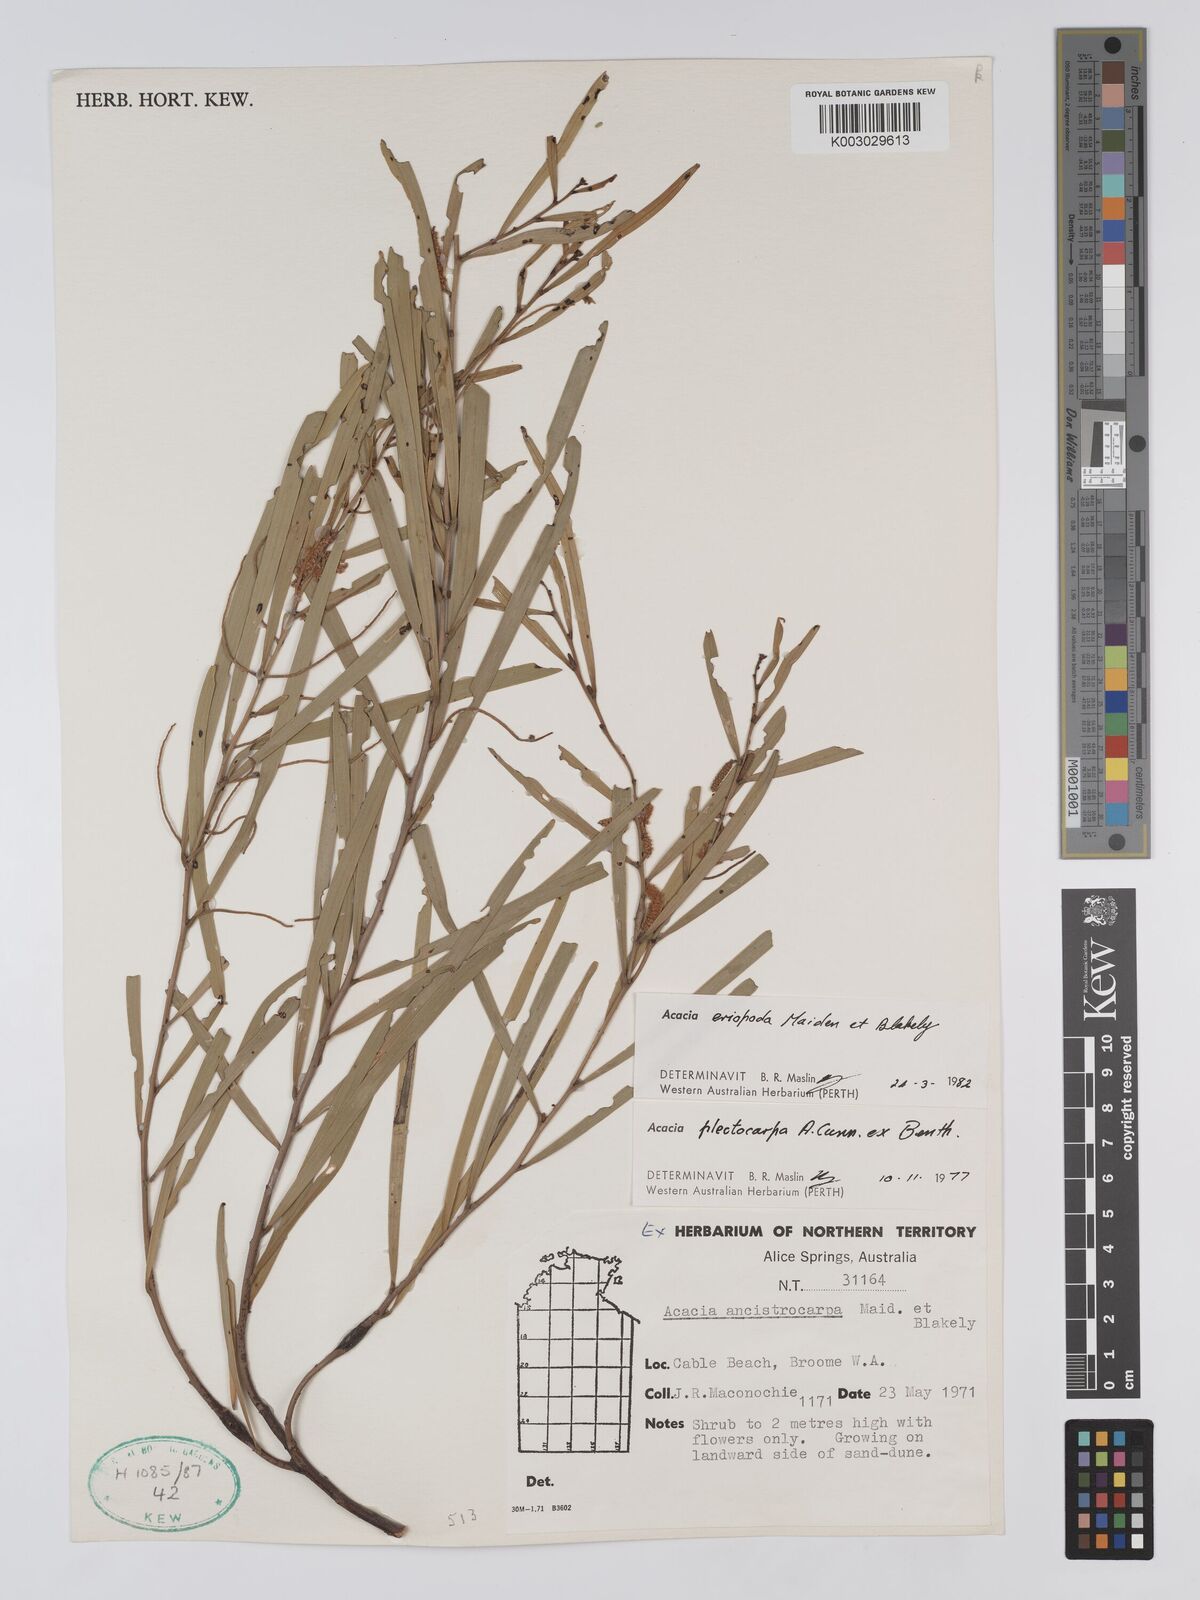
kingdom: Plantae
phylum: Tracheophyta
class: Magnoliopsida
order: Fabales
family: Fabaceae
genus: Acacia
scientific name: Acacia eriopoda
